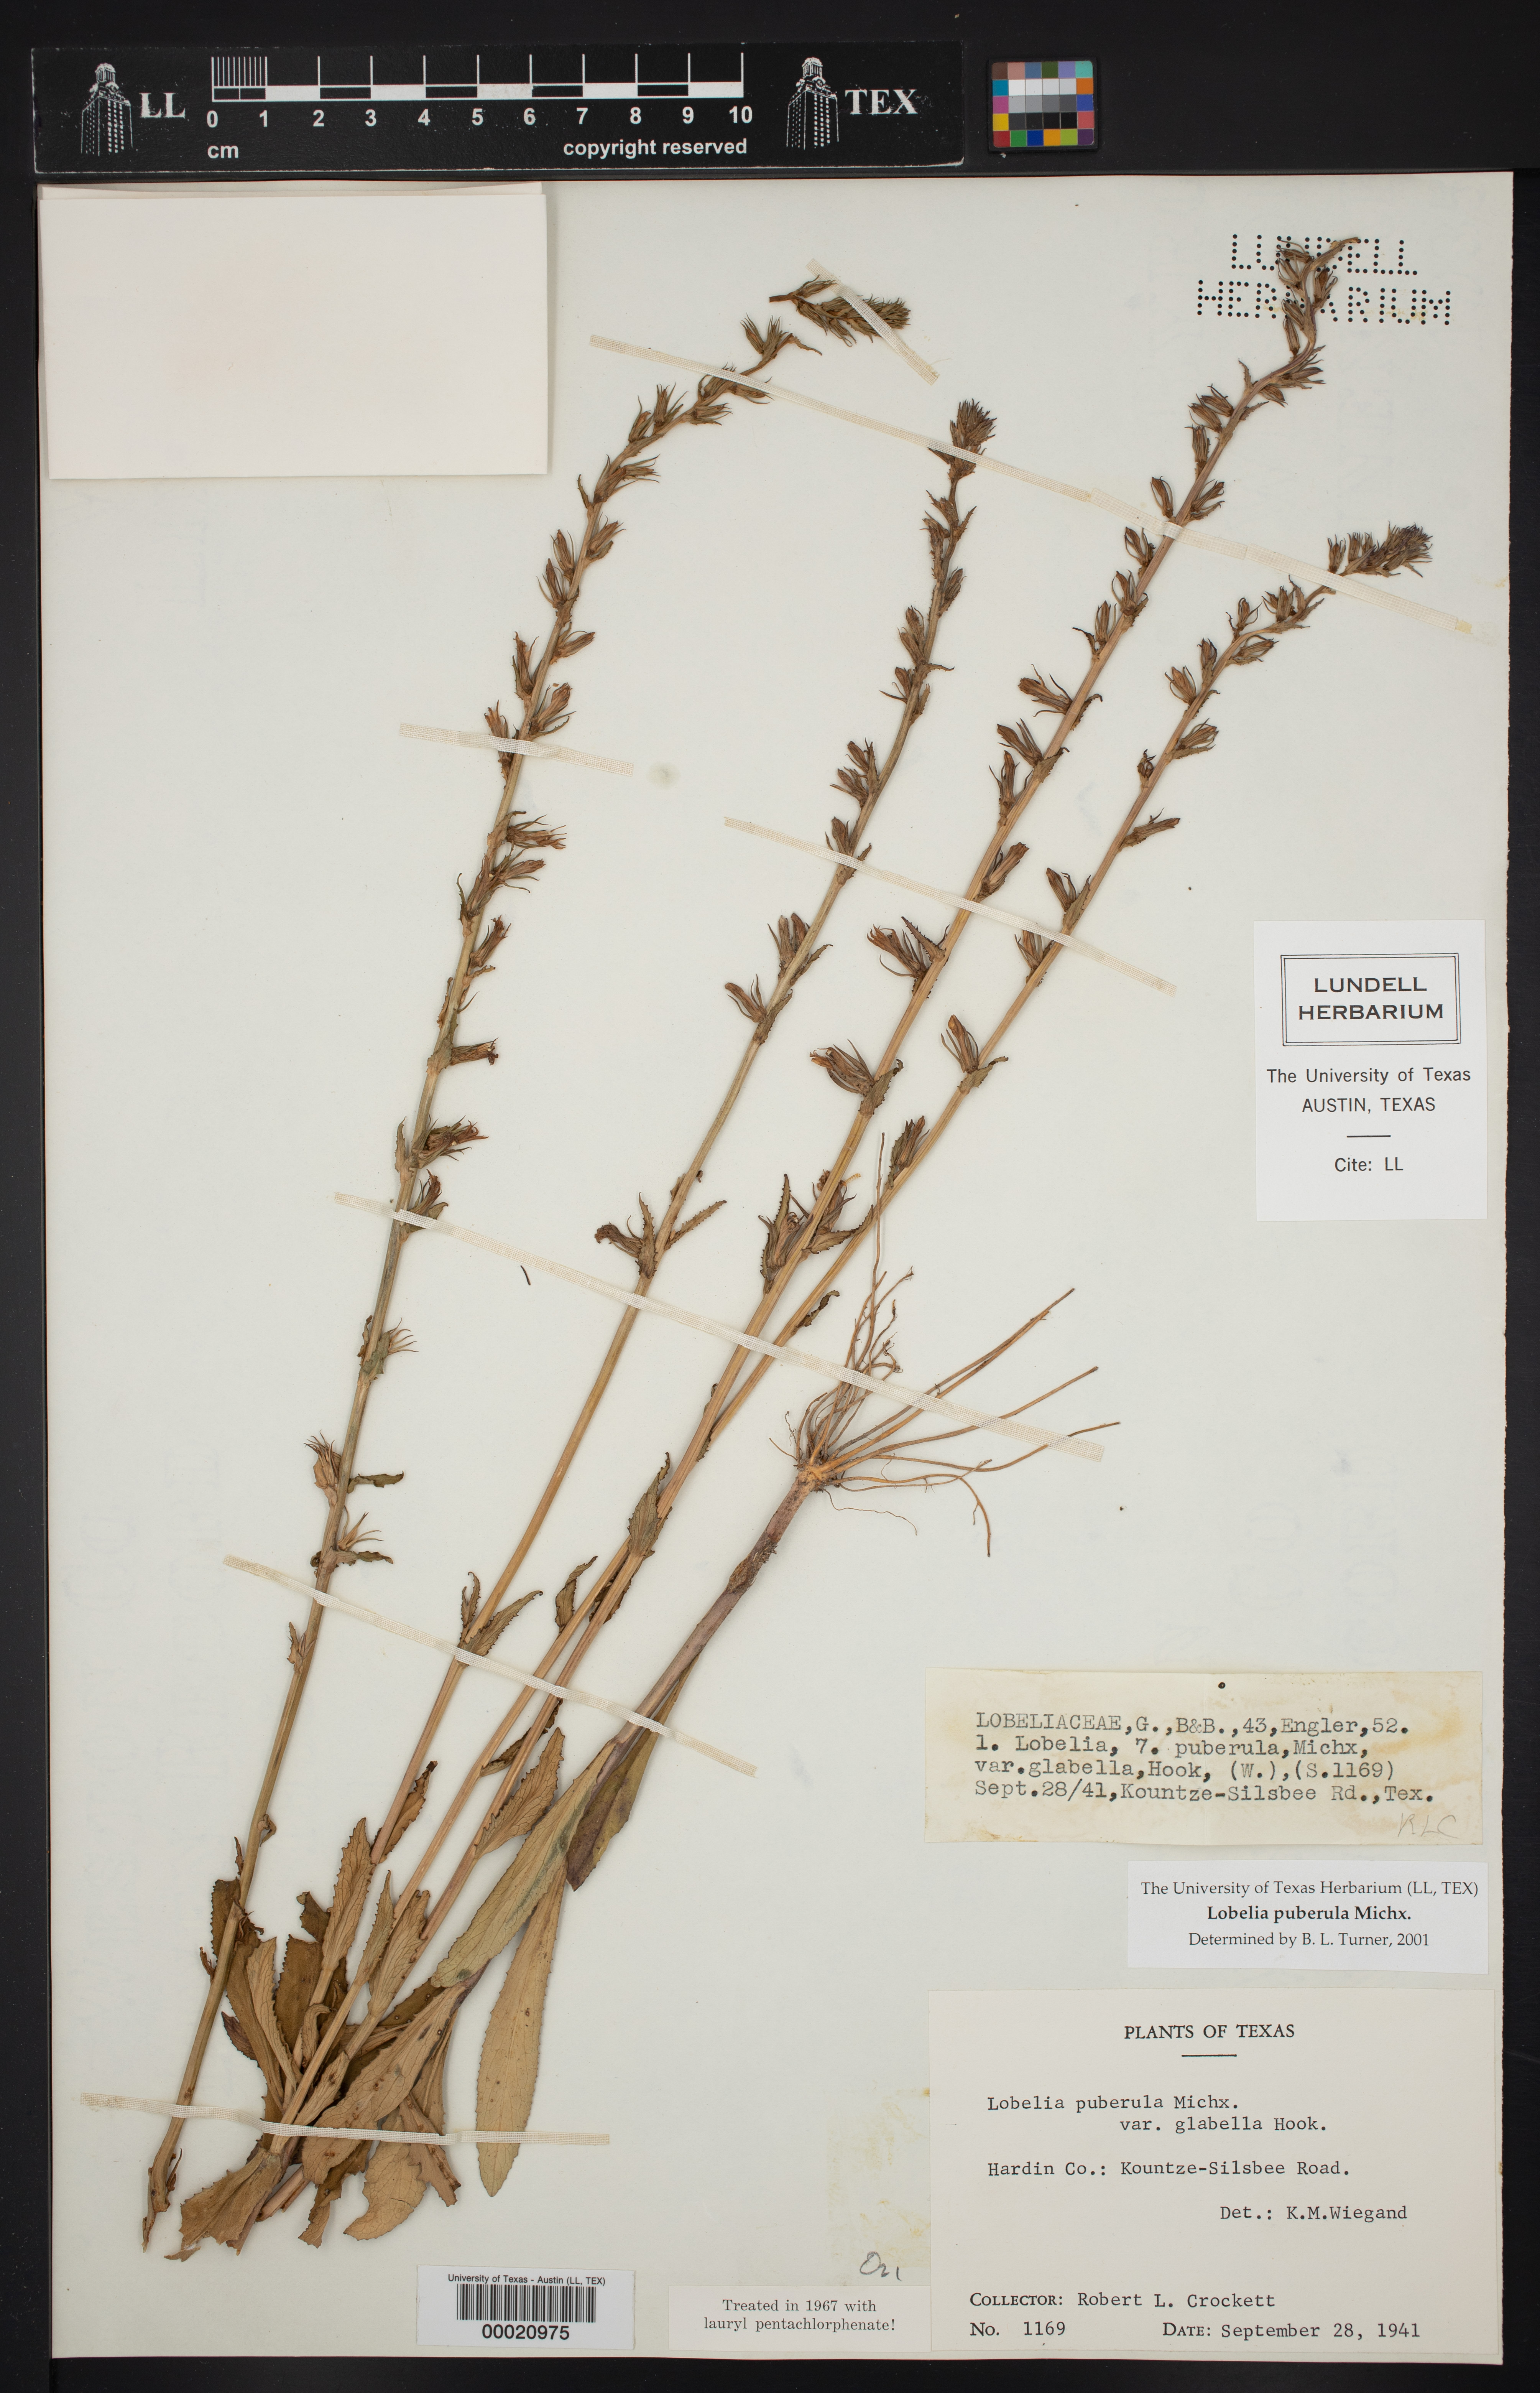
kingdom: Plantae
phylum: Tracheophyta
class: Magnoliopsida
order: Asterales
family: Campanulaceae
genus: Lobelia
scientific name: Lobelia puberula
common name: Purple dewdrop
